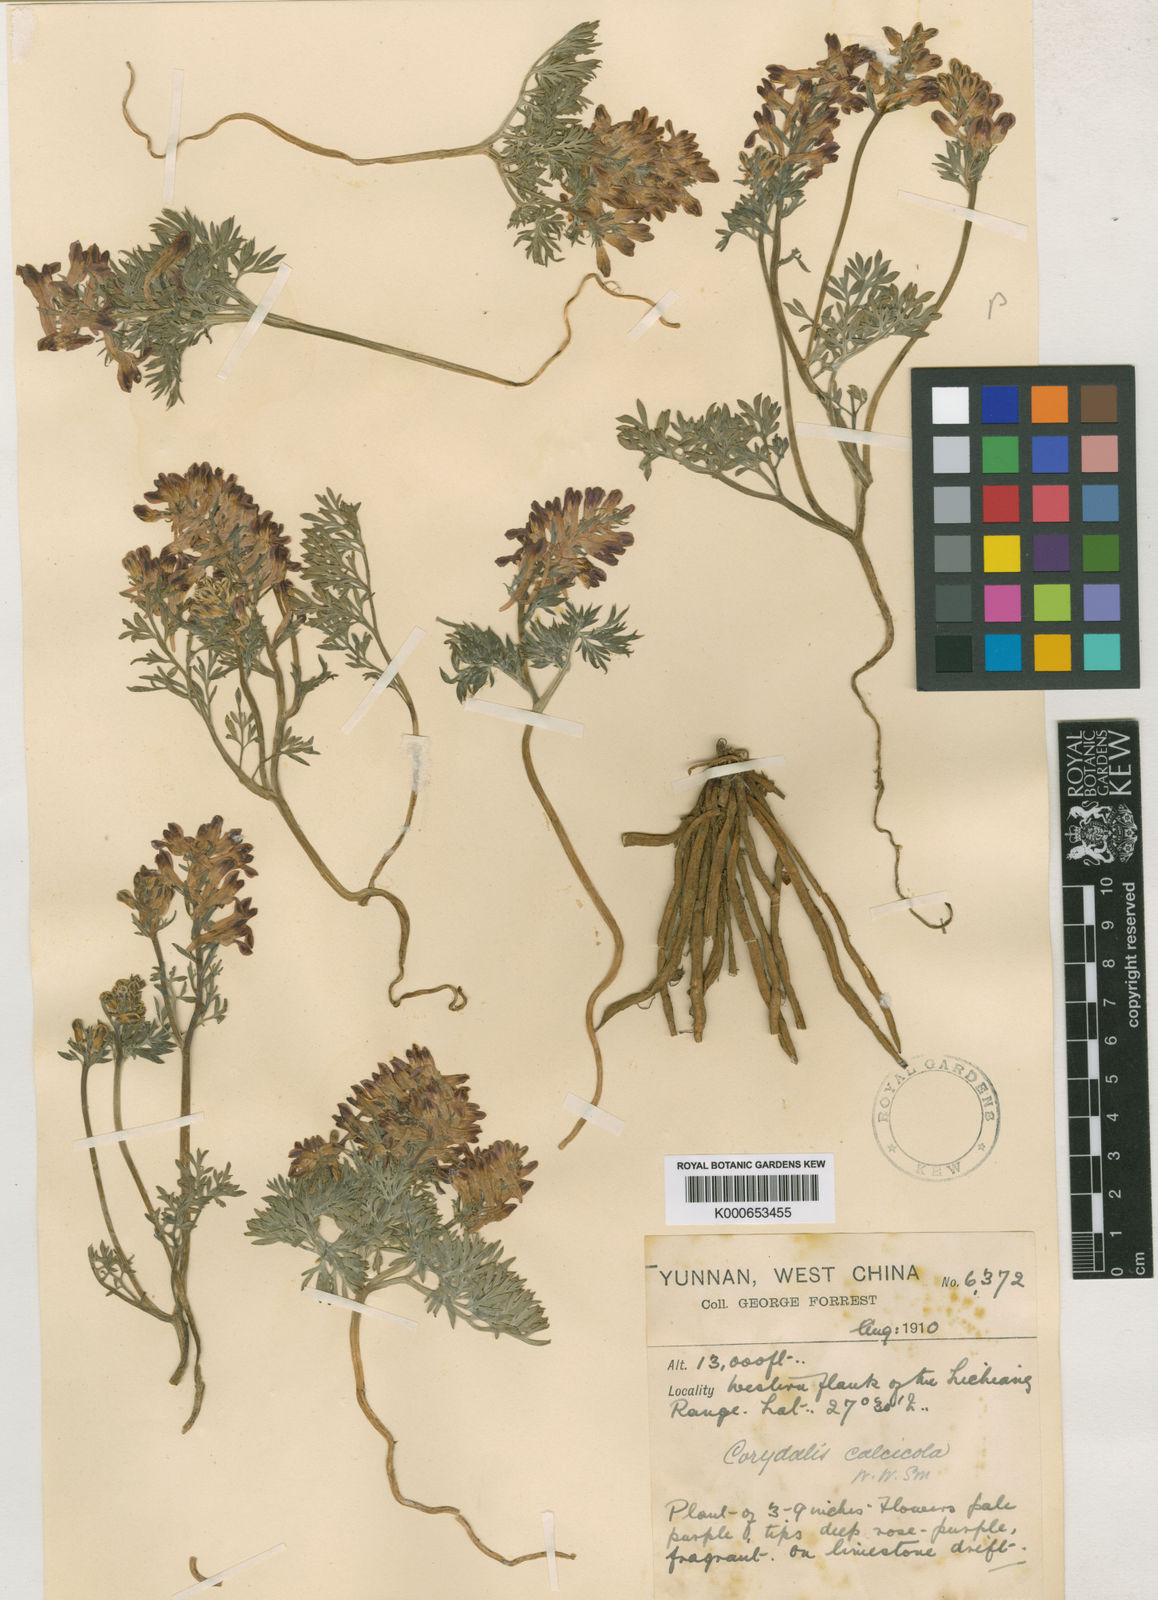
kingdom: Plantae
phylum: Tracheophyta
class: Magnoliopsida
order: Ranunculales
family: Papaveraceae
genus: Corydalis
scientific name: Corydalis hannae
